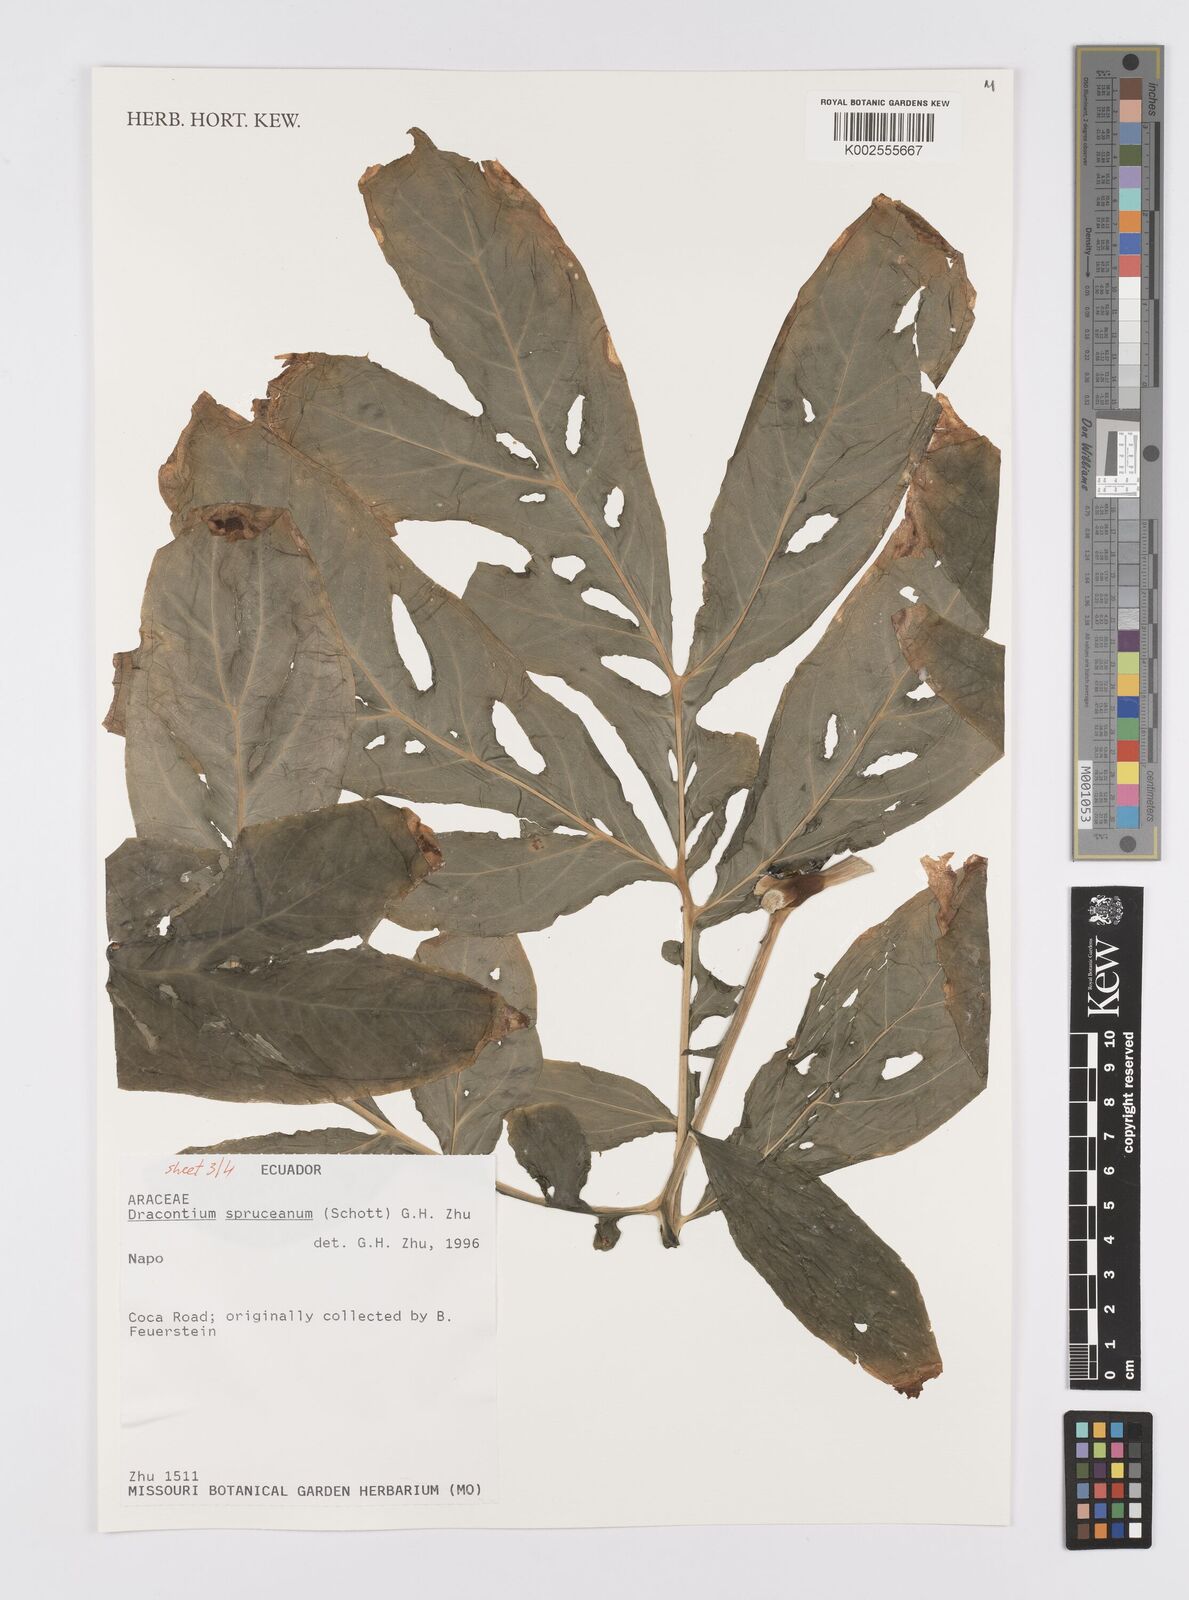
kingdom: Plantae
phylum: Tracheophyta
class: Liliopsida
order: Alismatales
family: Araceae
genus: Dracontium
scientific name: Dracontium spruceanum
